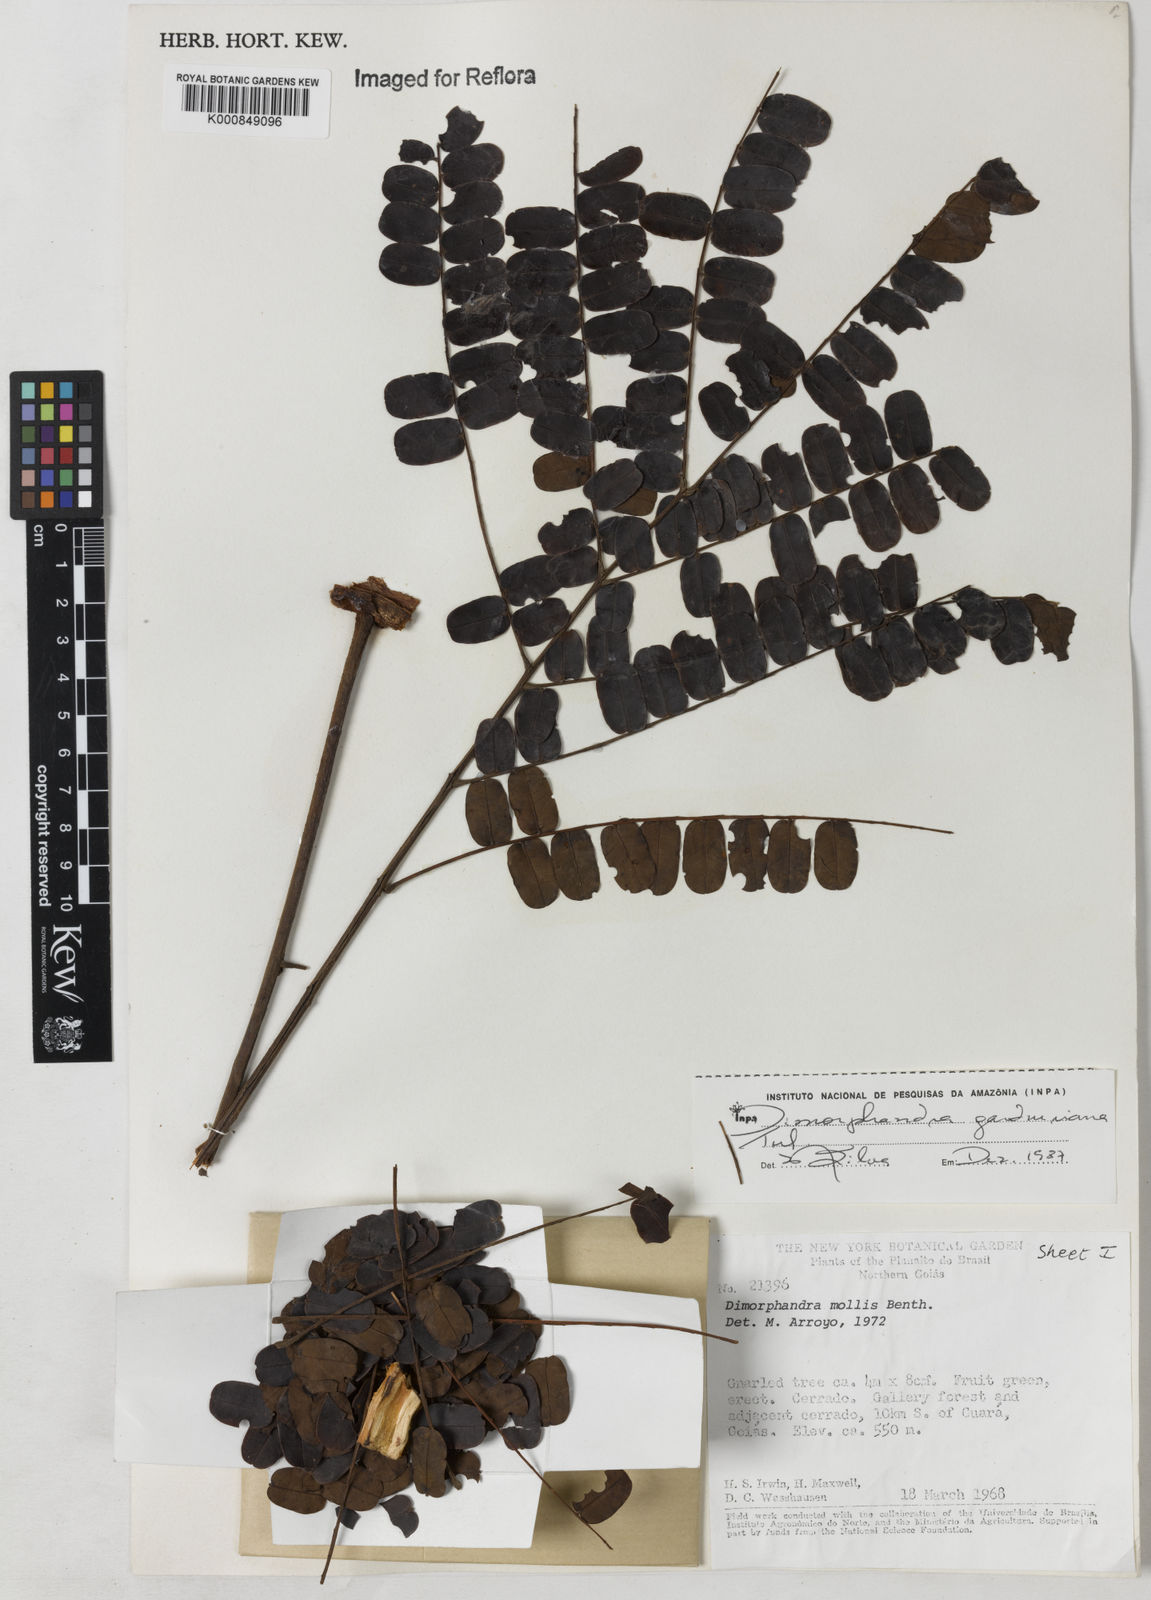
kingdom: Plantae
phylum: Tracheophyta
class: Magnoliopsida
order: Fabales
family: Fabaceae
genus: Dimorphandra
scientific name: Dimorphandra gardneriana
